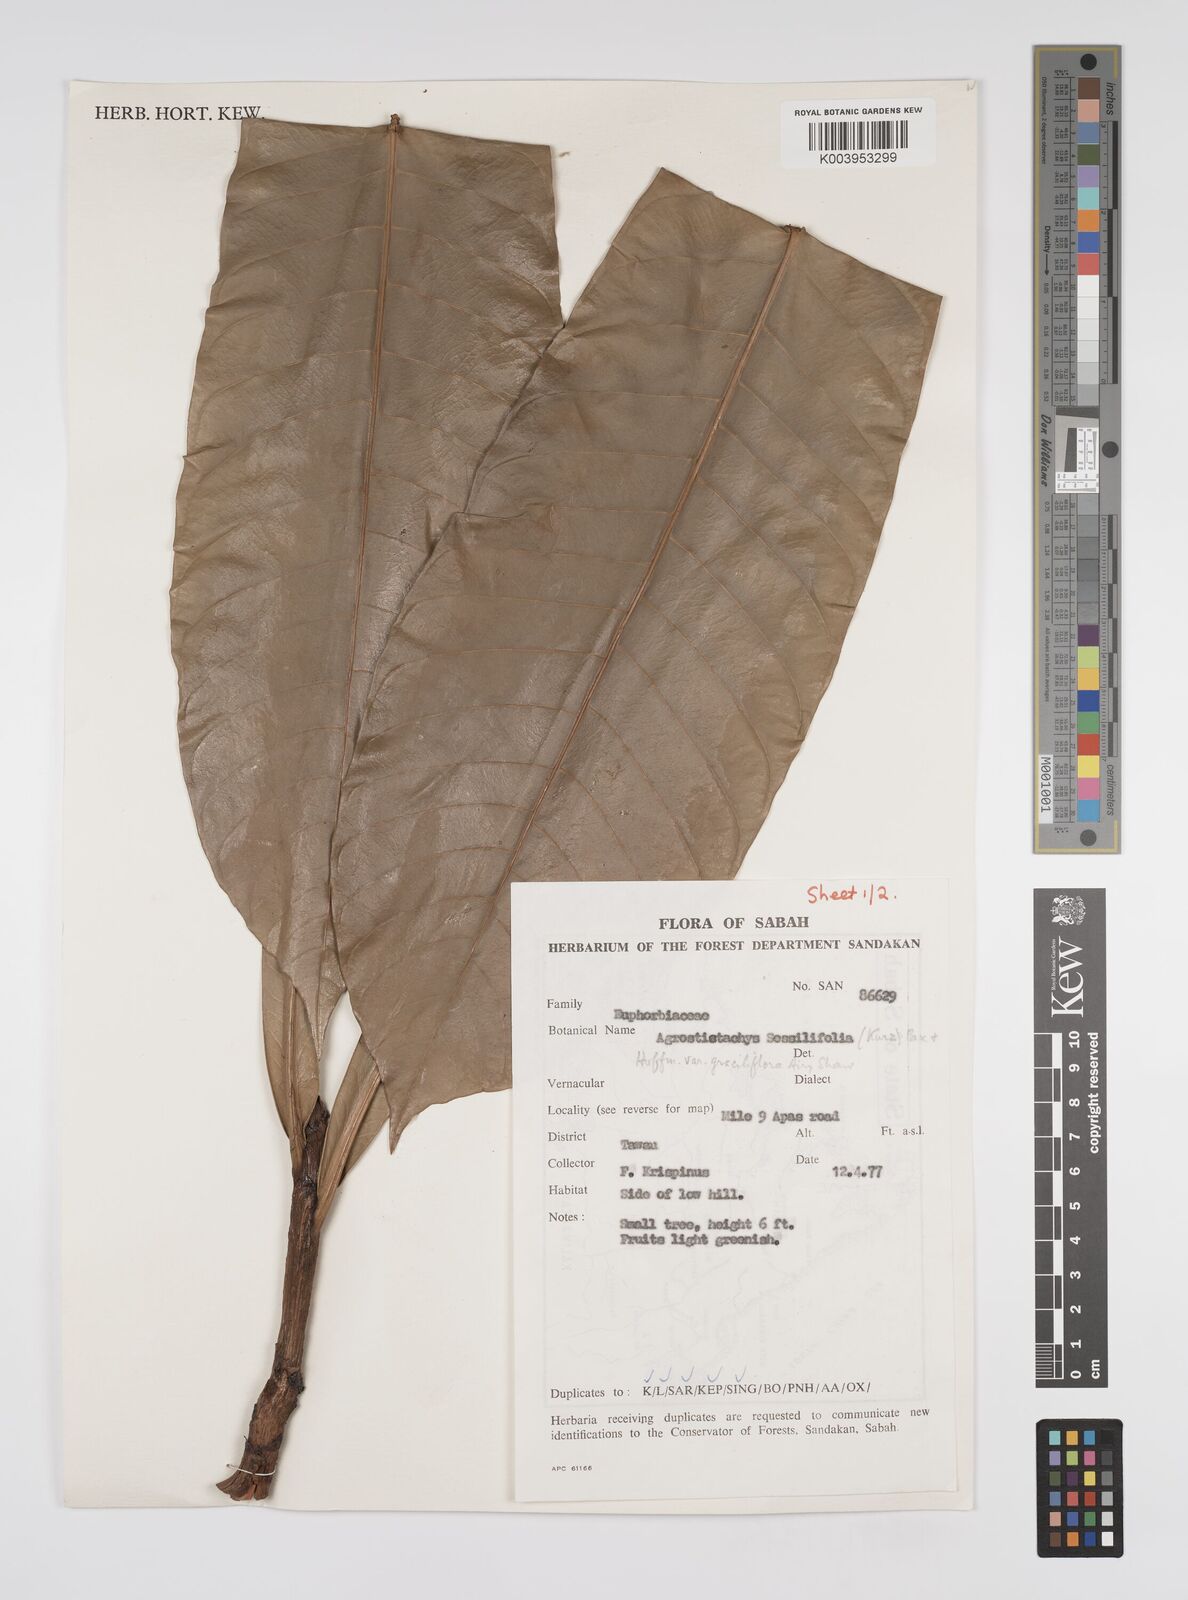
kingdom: Plantae
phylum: Tracheophyta
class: Magnoliopsida
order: Malpighiales
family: Euphorbiaceae
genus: Agrostistachys
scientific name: Agrostistachys
